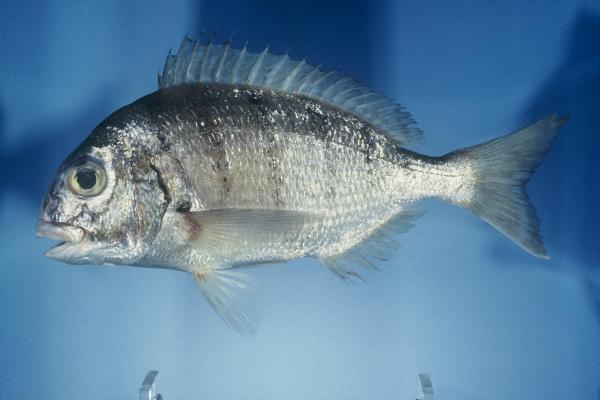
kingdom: Animalia
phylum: Chordata
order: Perciformes
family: Sparidae
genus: Rhabdosargus
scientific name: Rhabdosargus globiceps
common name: White stumpnose
